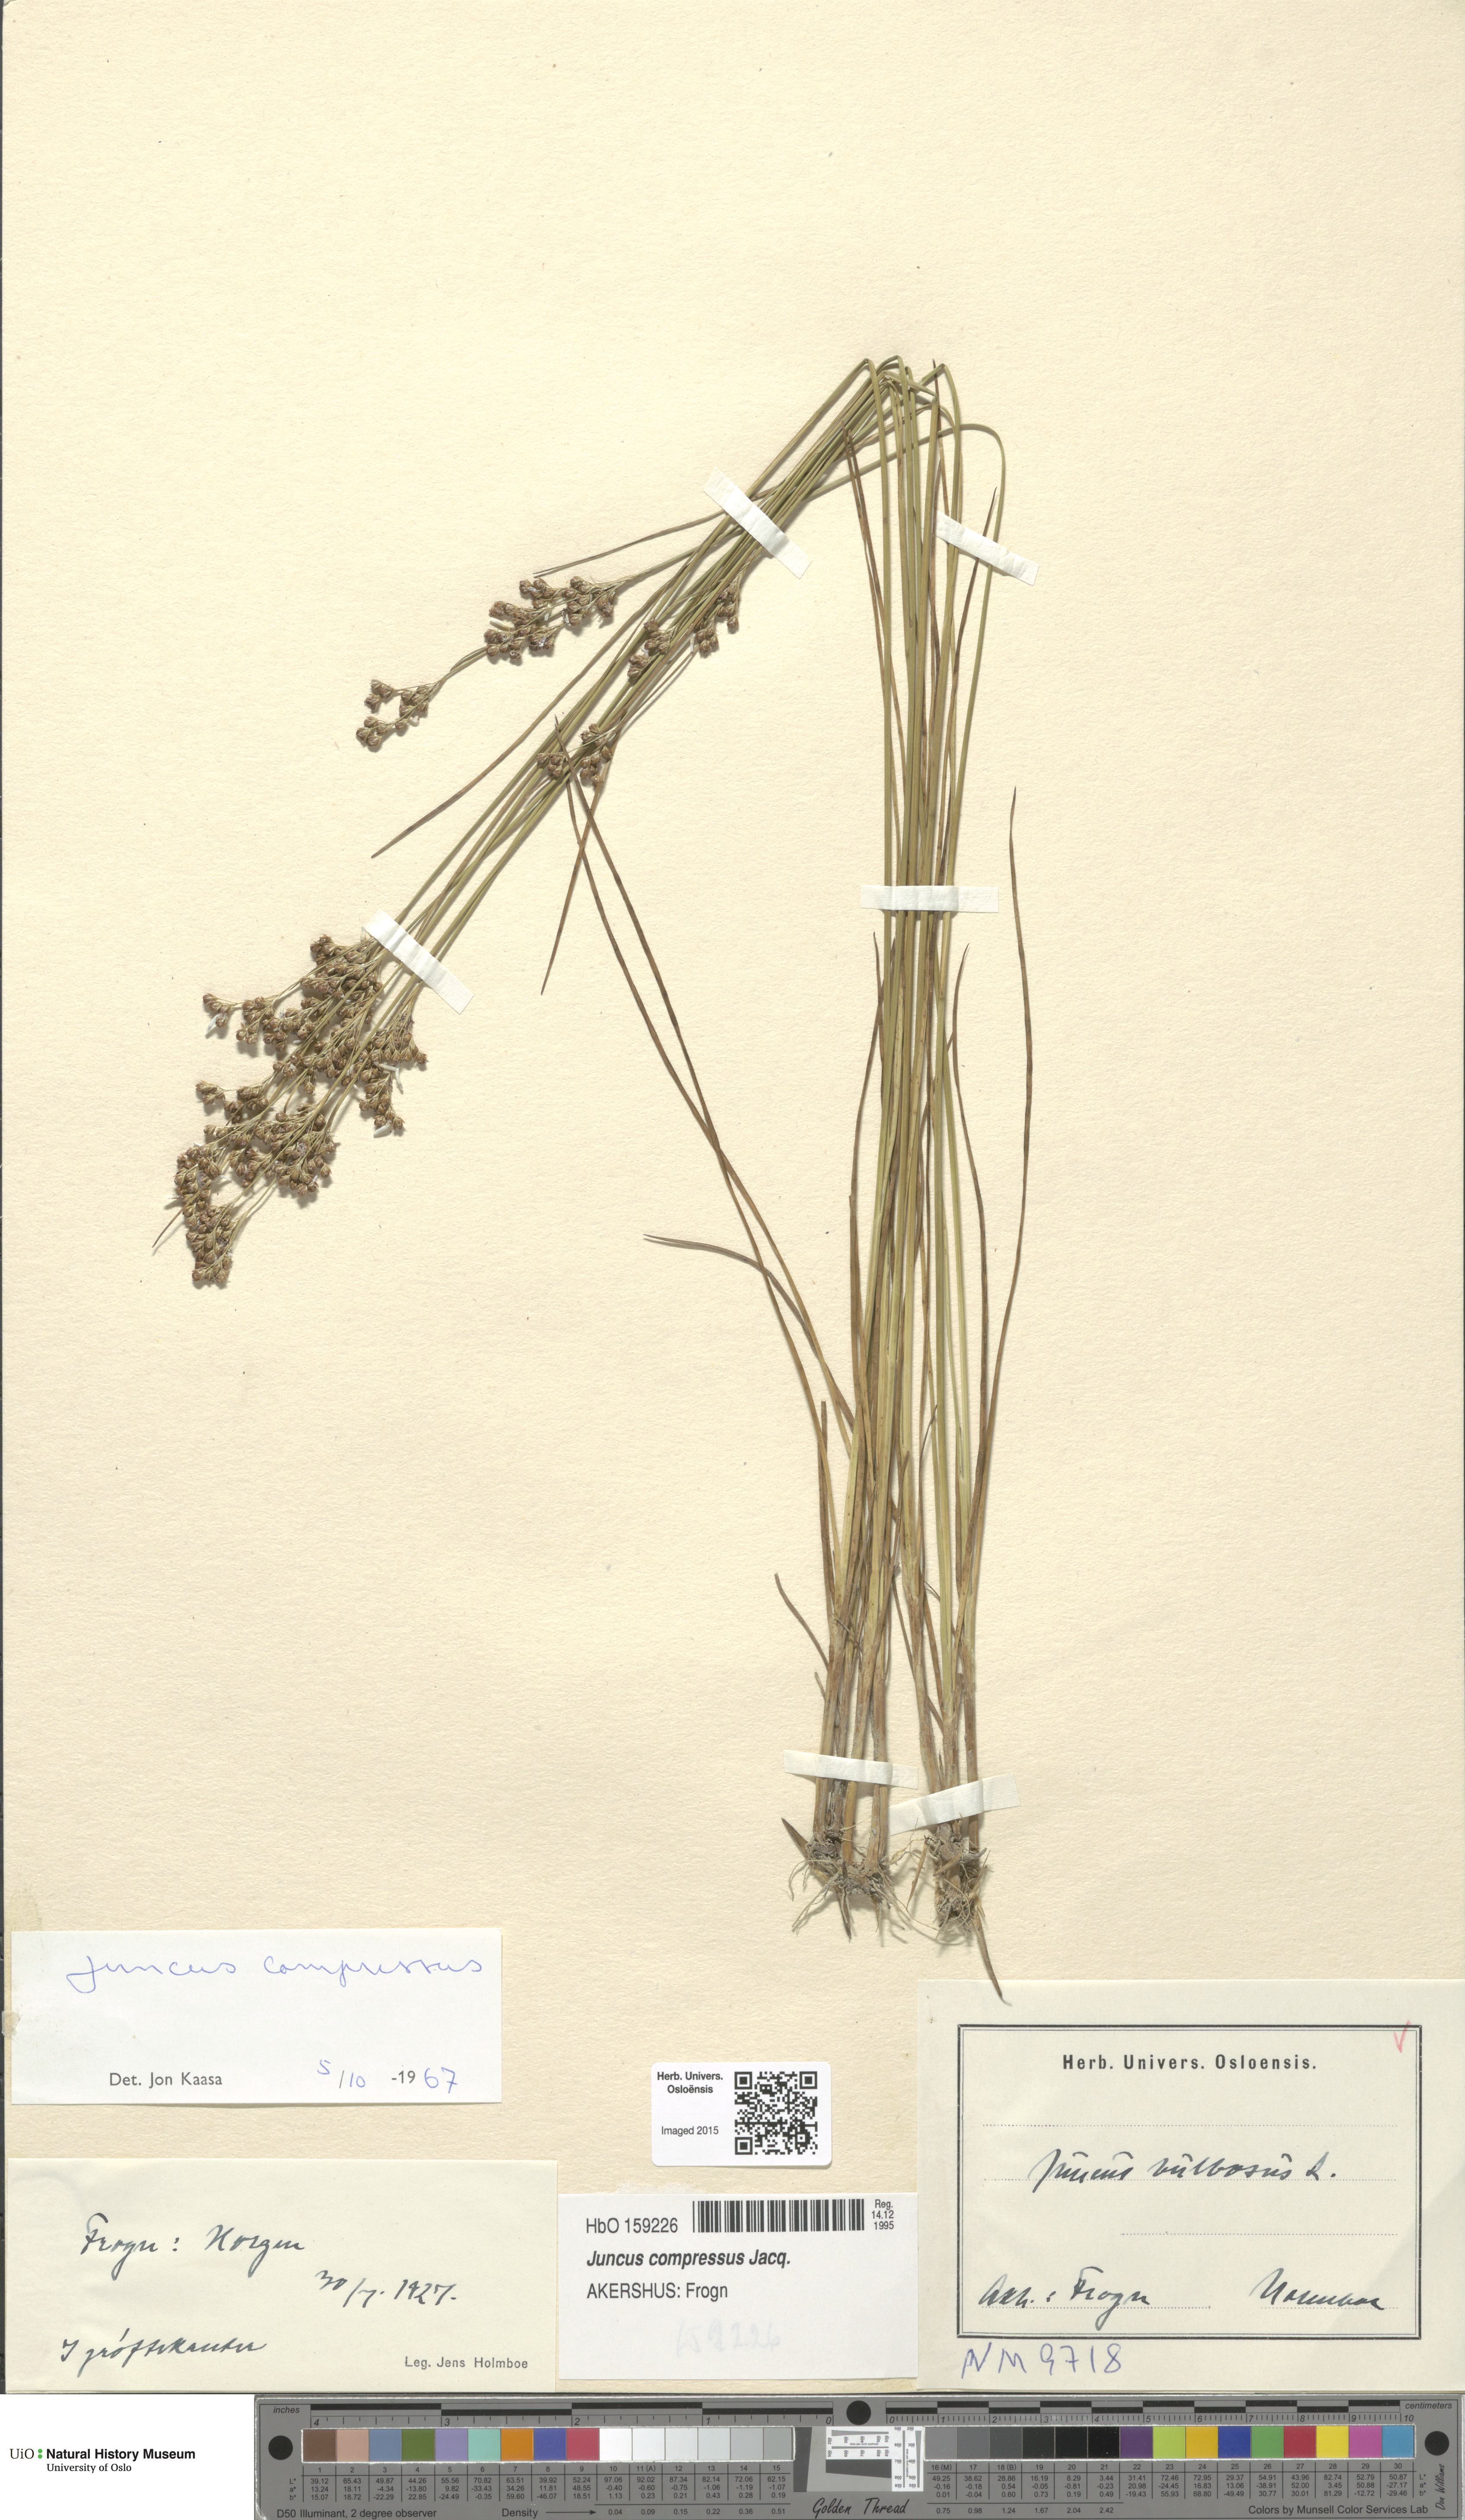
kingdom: Plantae
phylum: Tracheophyta
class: Liliopsida
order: Poales
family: Juncaceae
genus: Juncus
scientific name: Juncus compressus
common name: Round-fruited rush
